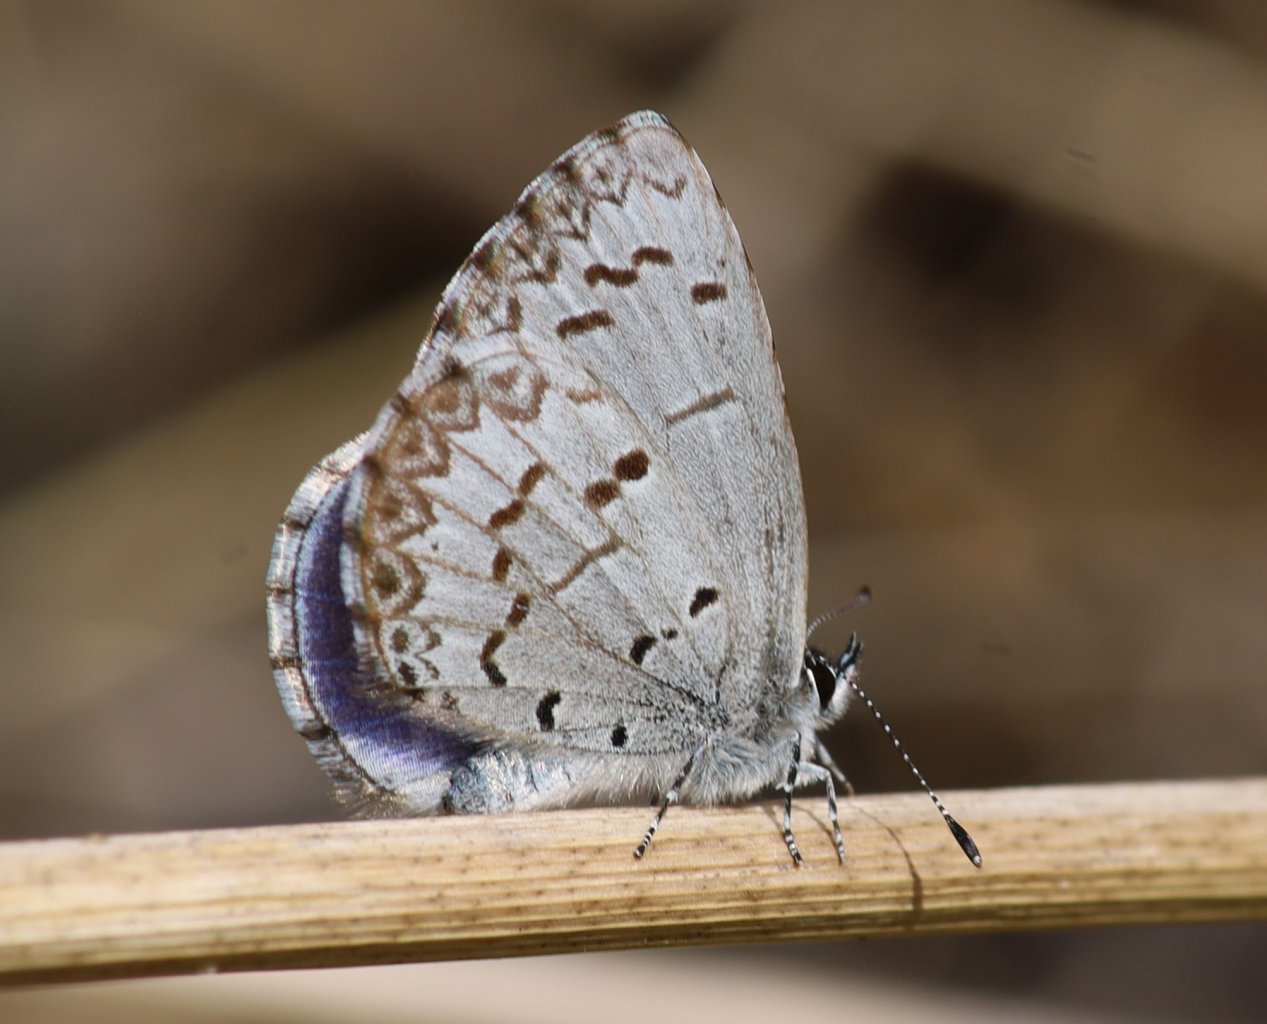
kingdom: Animalia
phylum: Arthropoda
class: Insecta
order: Lepidoptera
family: Lycaenidae
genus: Celastrina
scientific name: Celastrina lucia
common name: Northern Spring Azure
